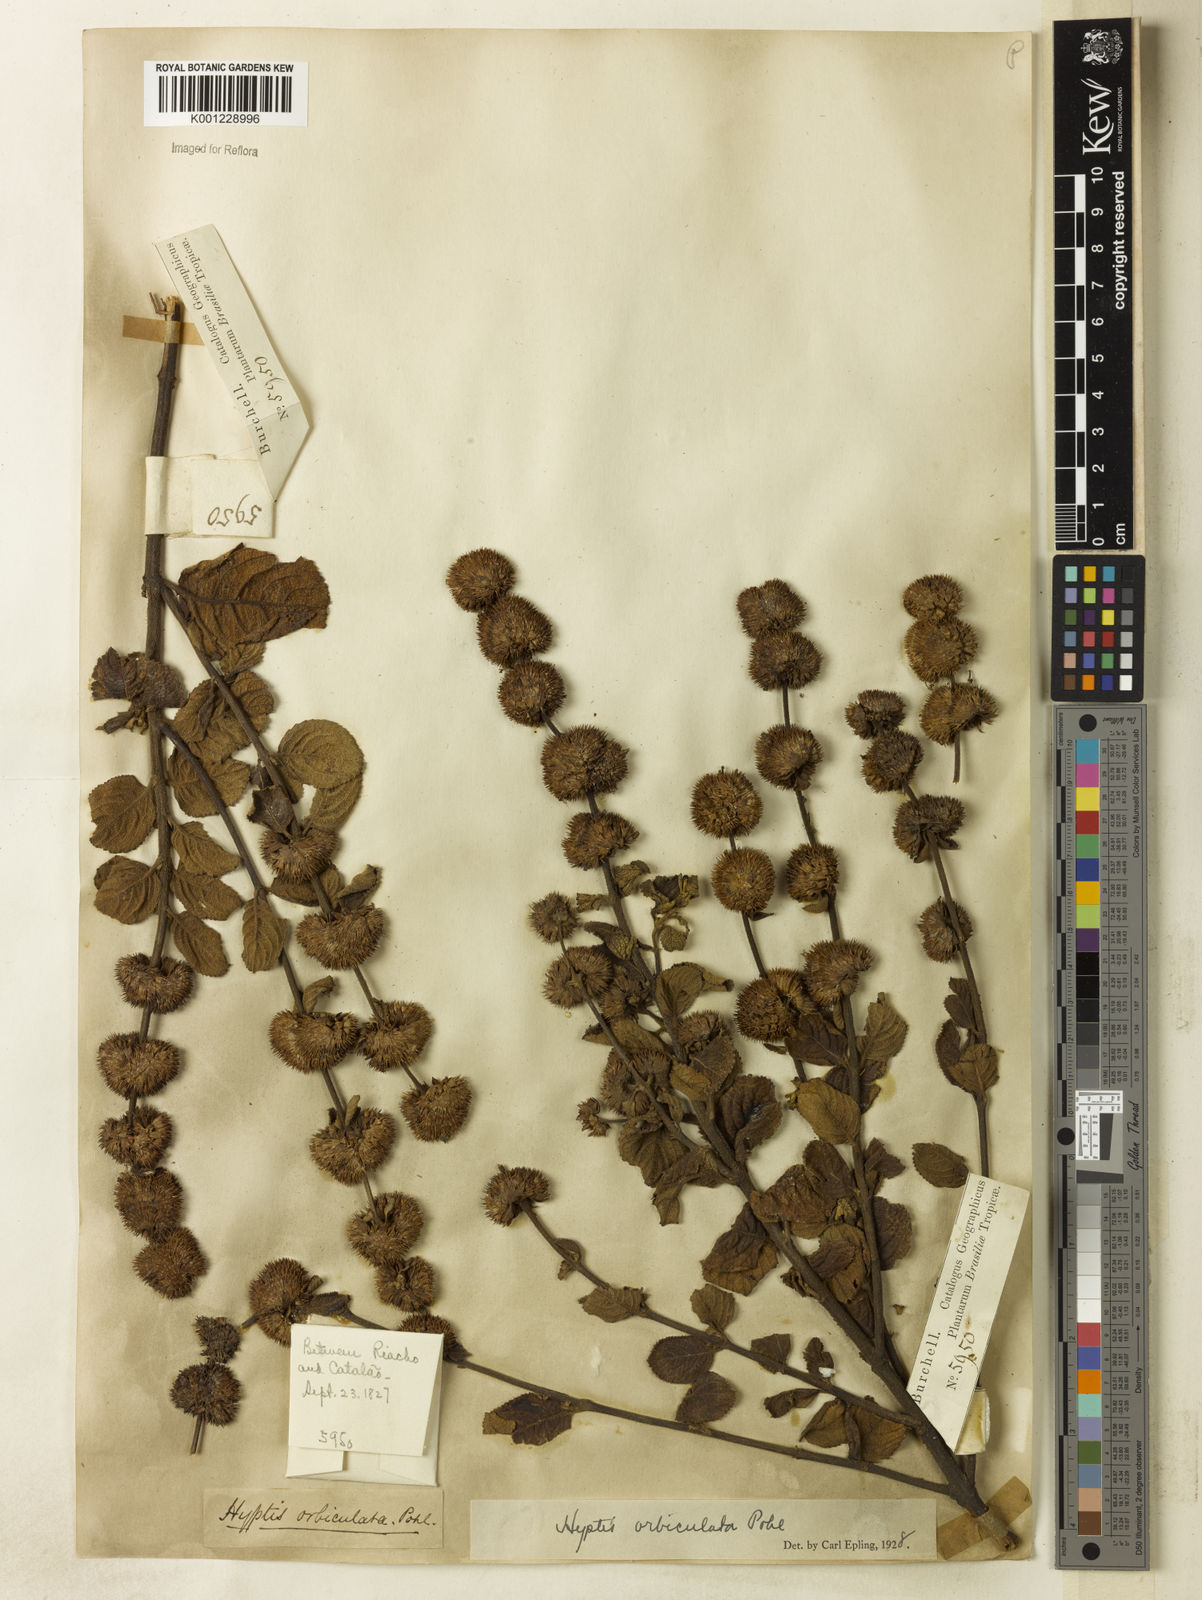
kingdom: Plantae
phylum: Tracheophyta
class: Magnoliopsida
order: Lamiales
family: Lamiaceae
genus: Hyptis
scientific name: Hyptis orbiculata
